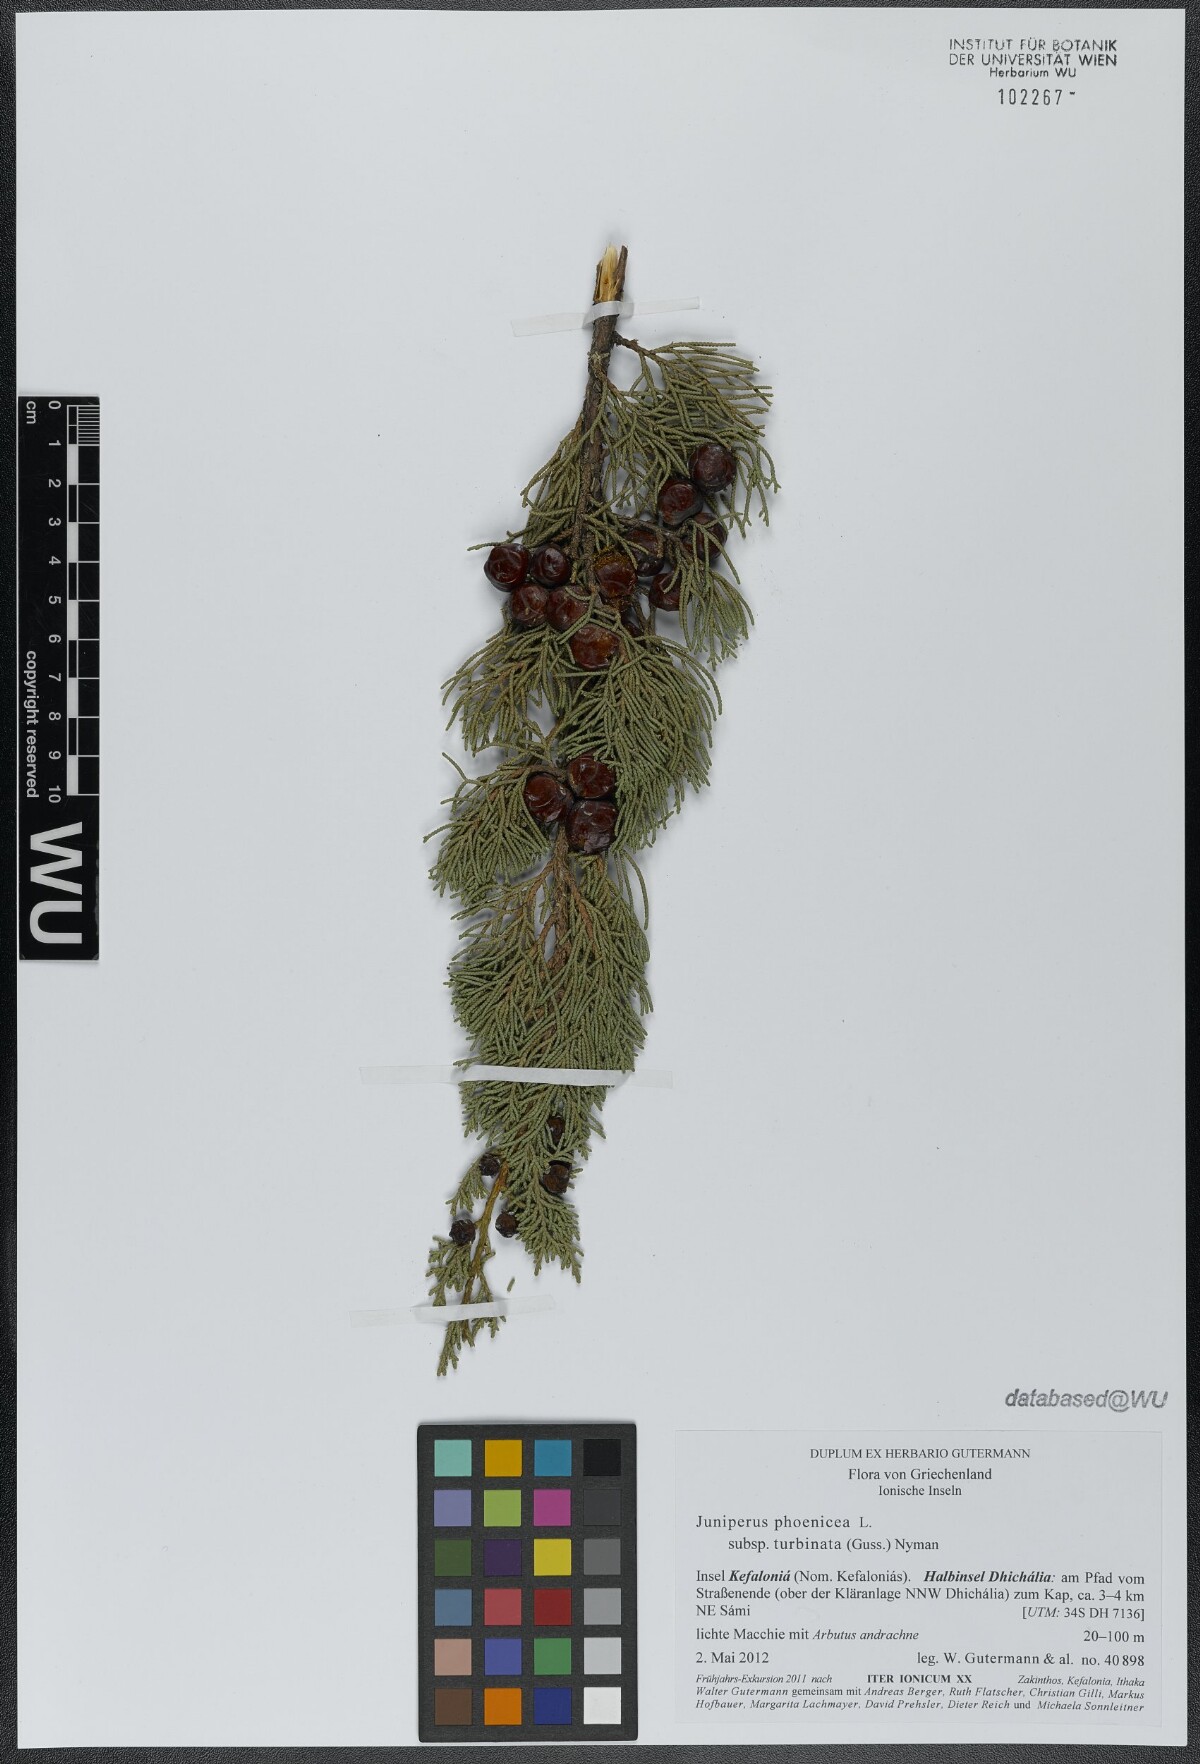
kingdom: Plantae
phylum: Tracheophyta
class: Pinopsida
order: Pinales
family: Cupressaceae
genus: Juniperus
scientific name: Juniperus phoenicea
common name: Phoenician juniper
